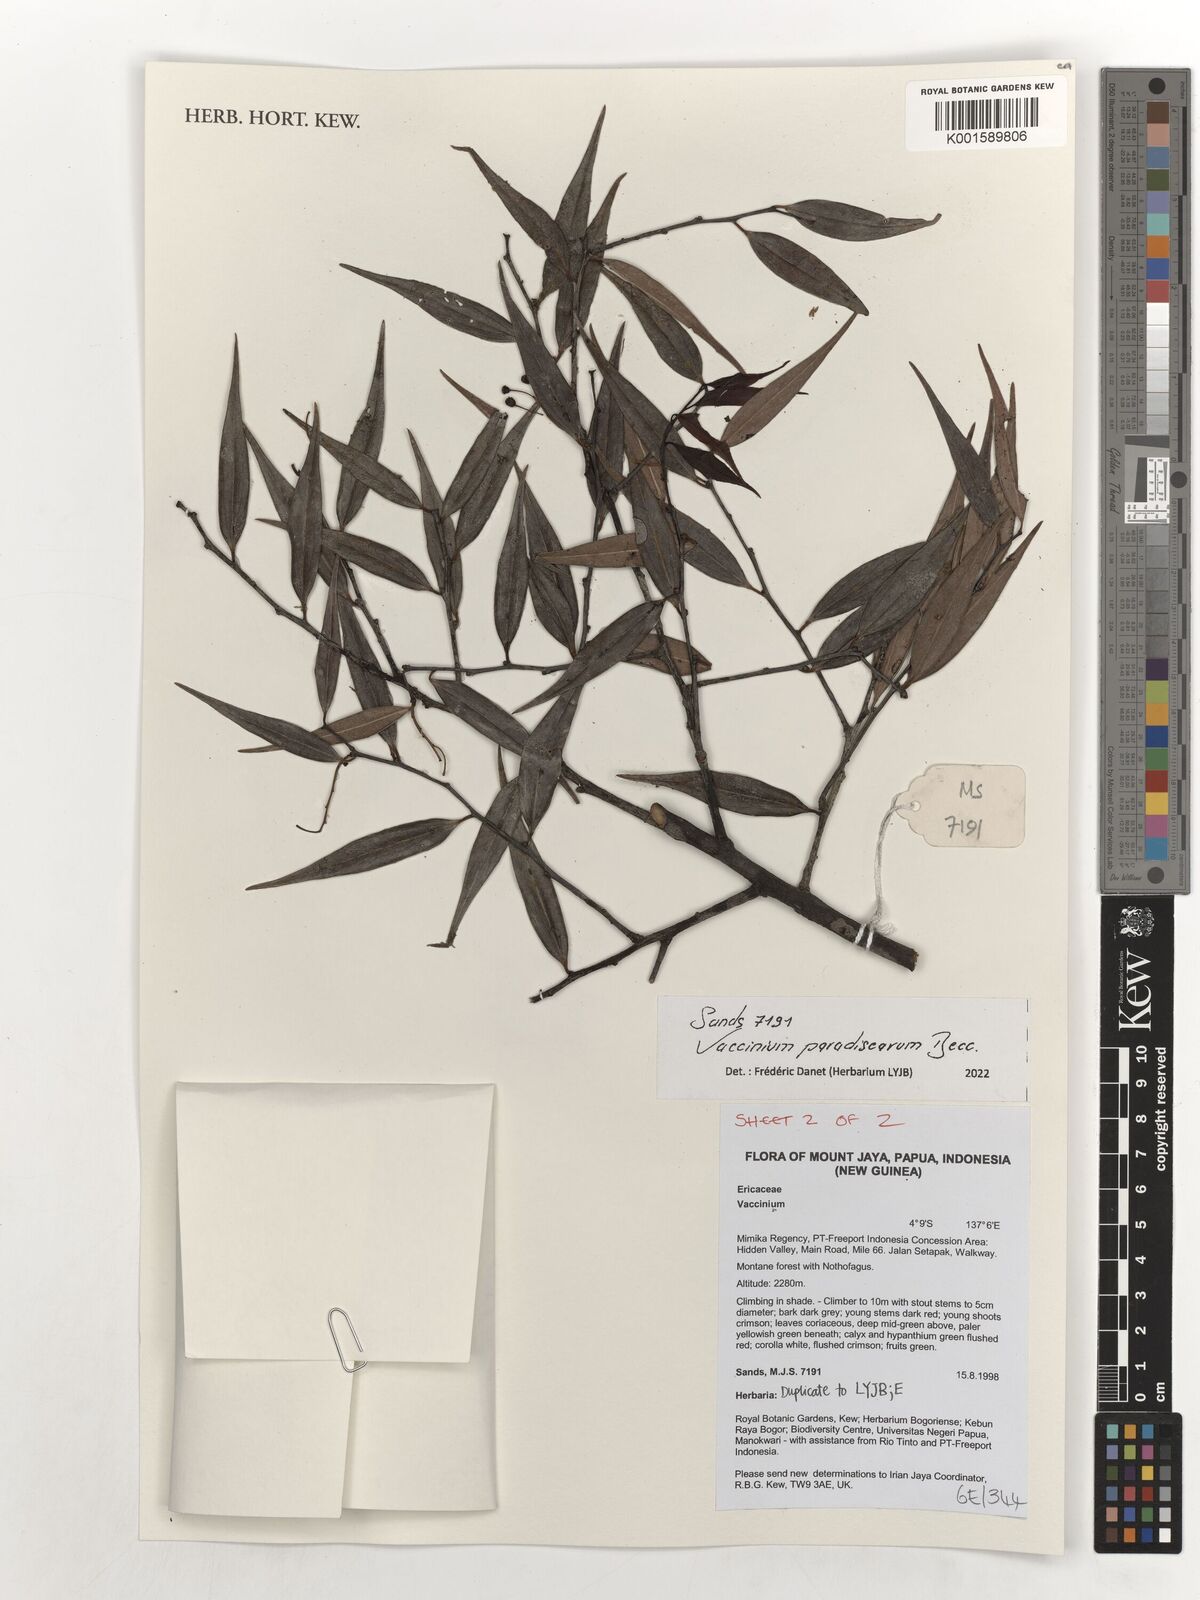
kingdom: Plantae
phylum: Tracheophyta
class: Magnoliopsida
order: Ericales
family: Ericaceae
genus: Vaccinium
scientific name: Vaccinium paradisearum
